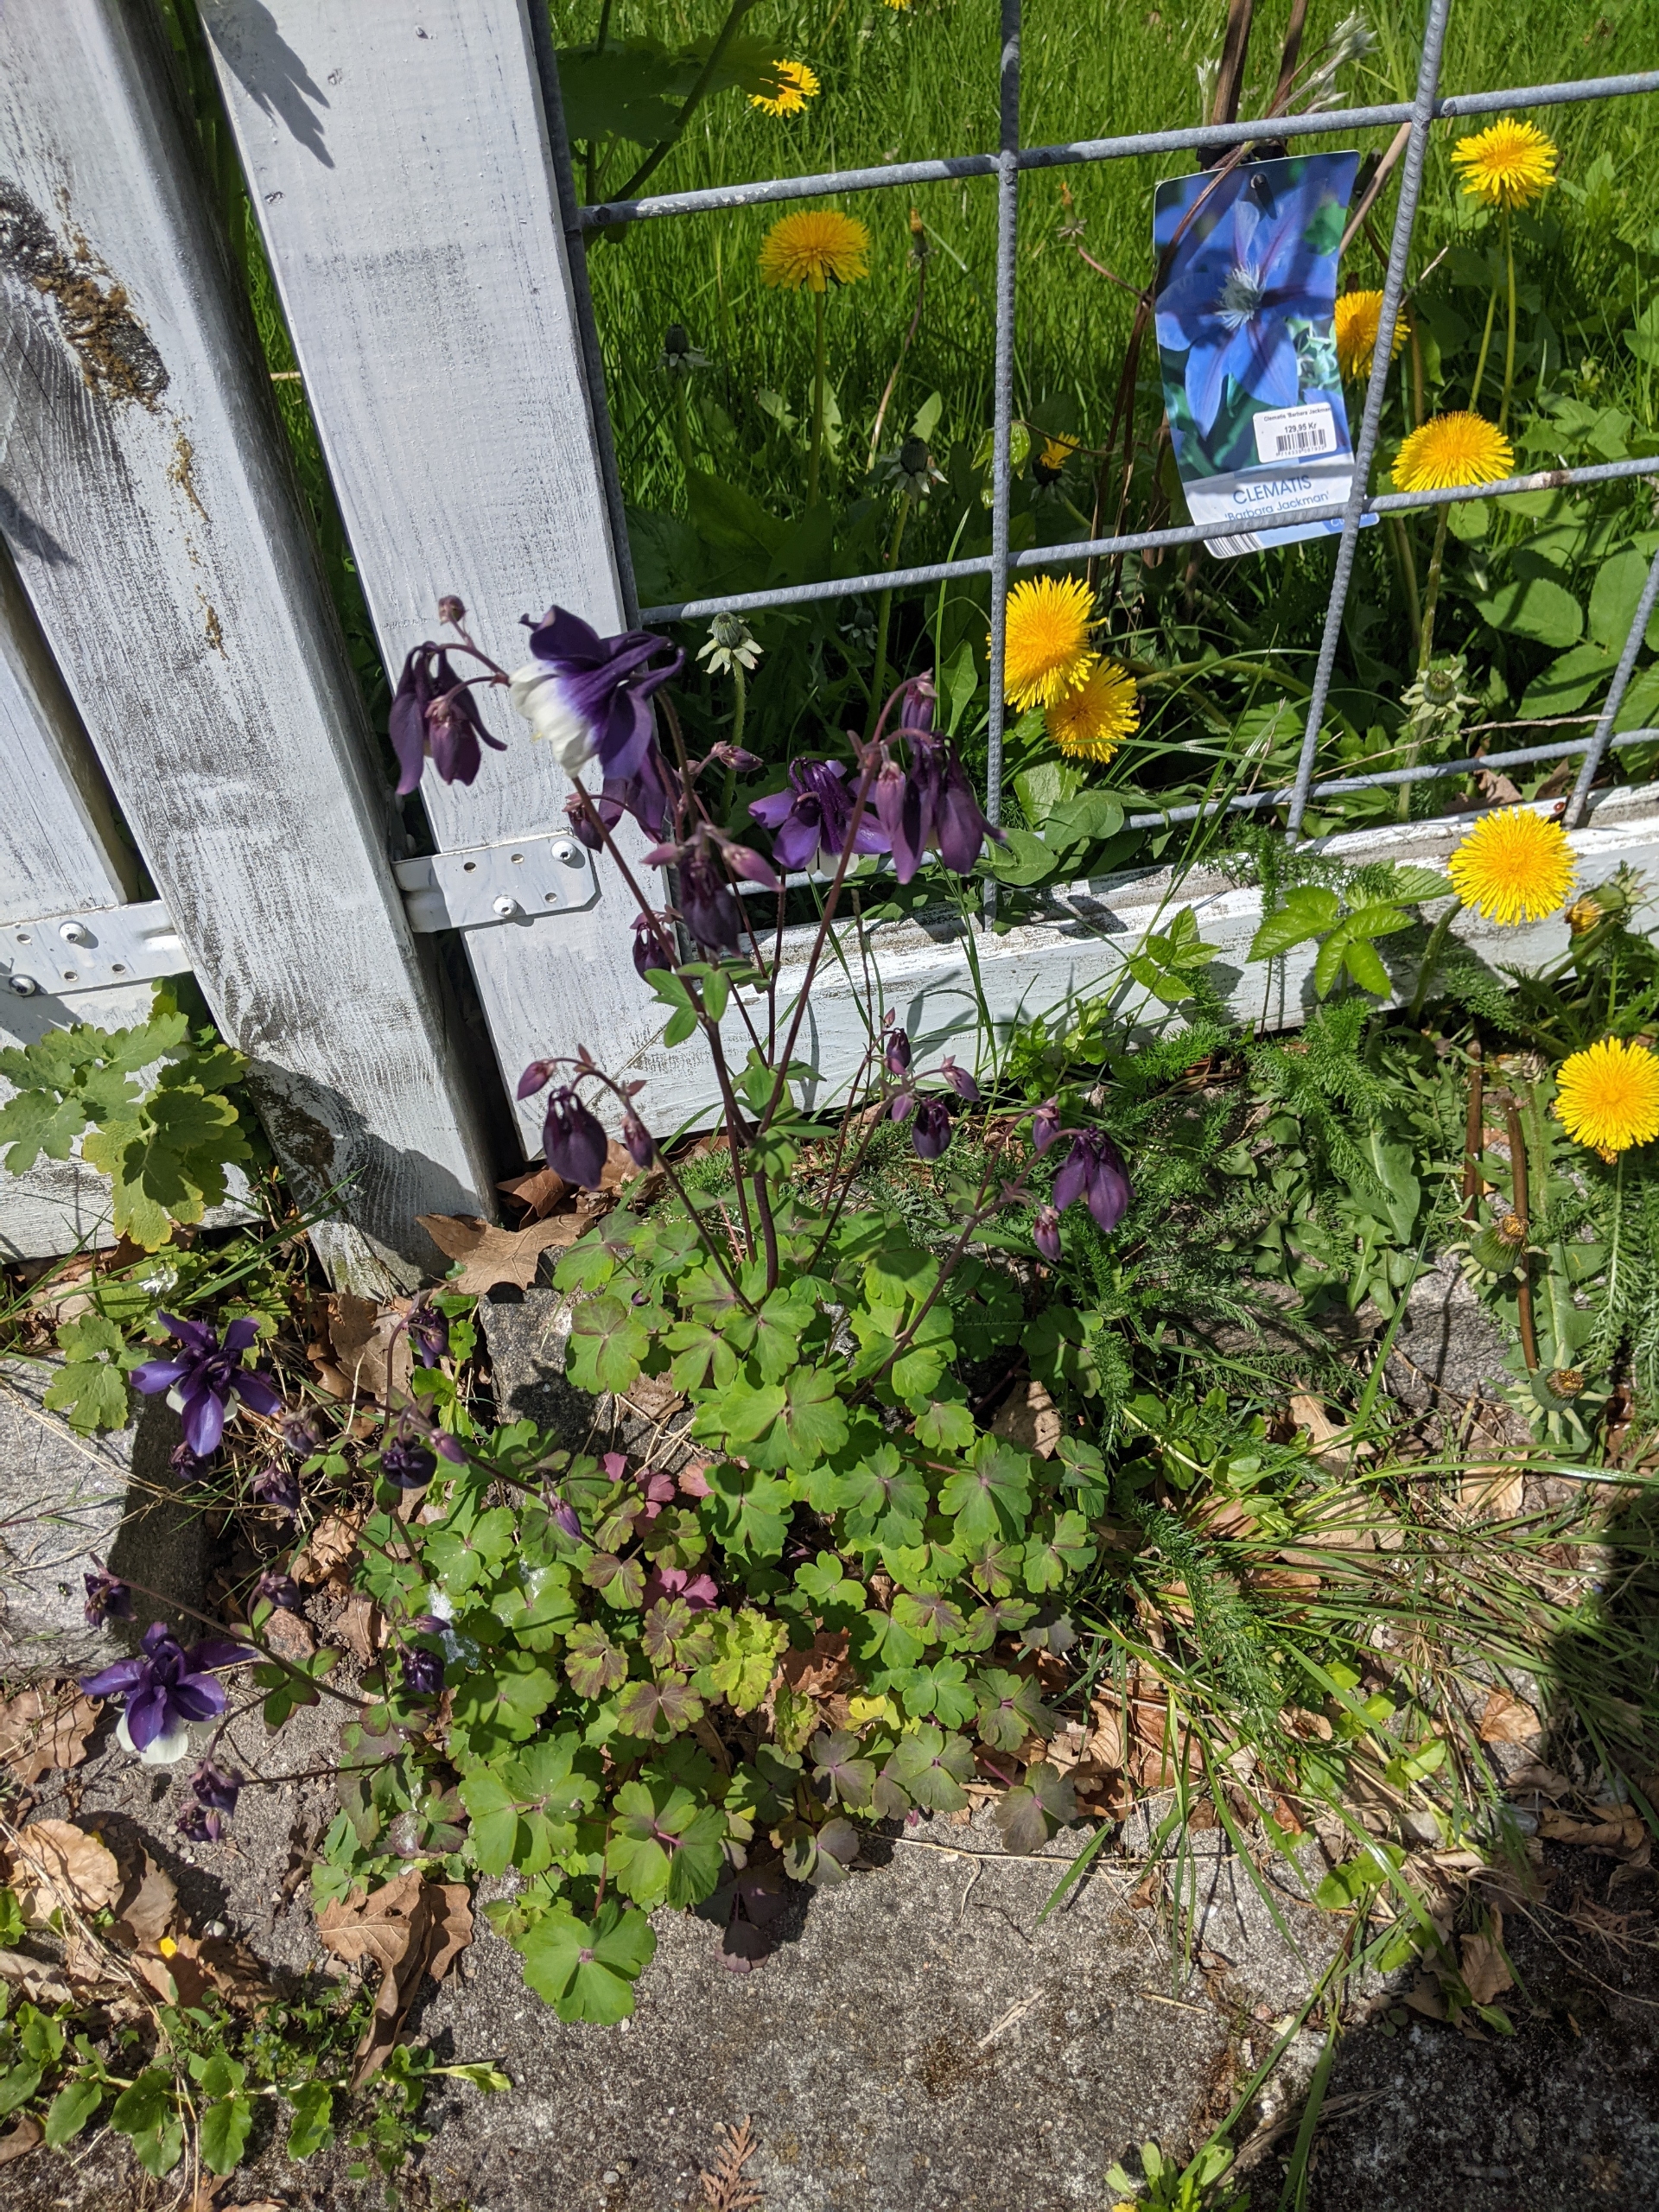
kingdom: Plantae
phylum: Tracheophyta
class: Magnoliopsida
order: Ranunculales
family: Ranunculaceae
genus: Aquilegia
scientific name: Aquilegia vulgaris
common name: Akeleje
